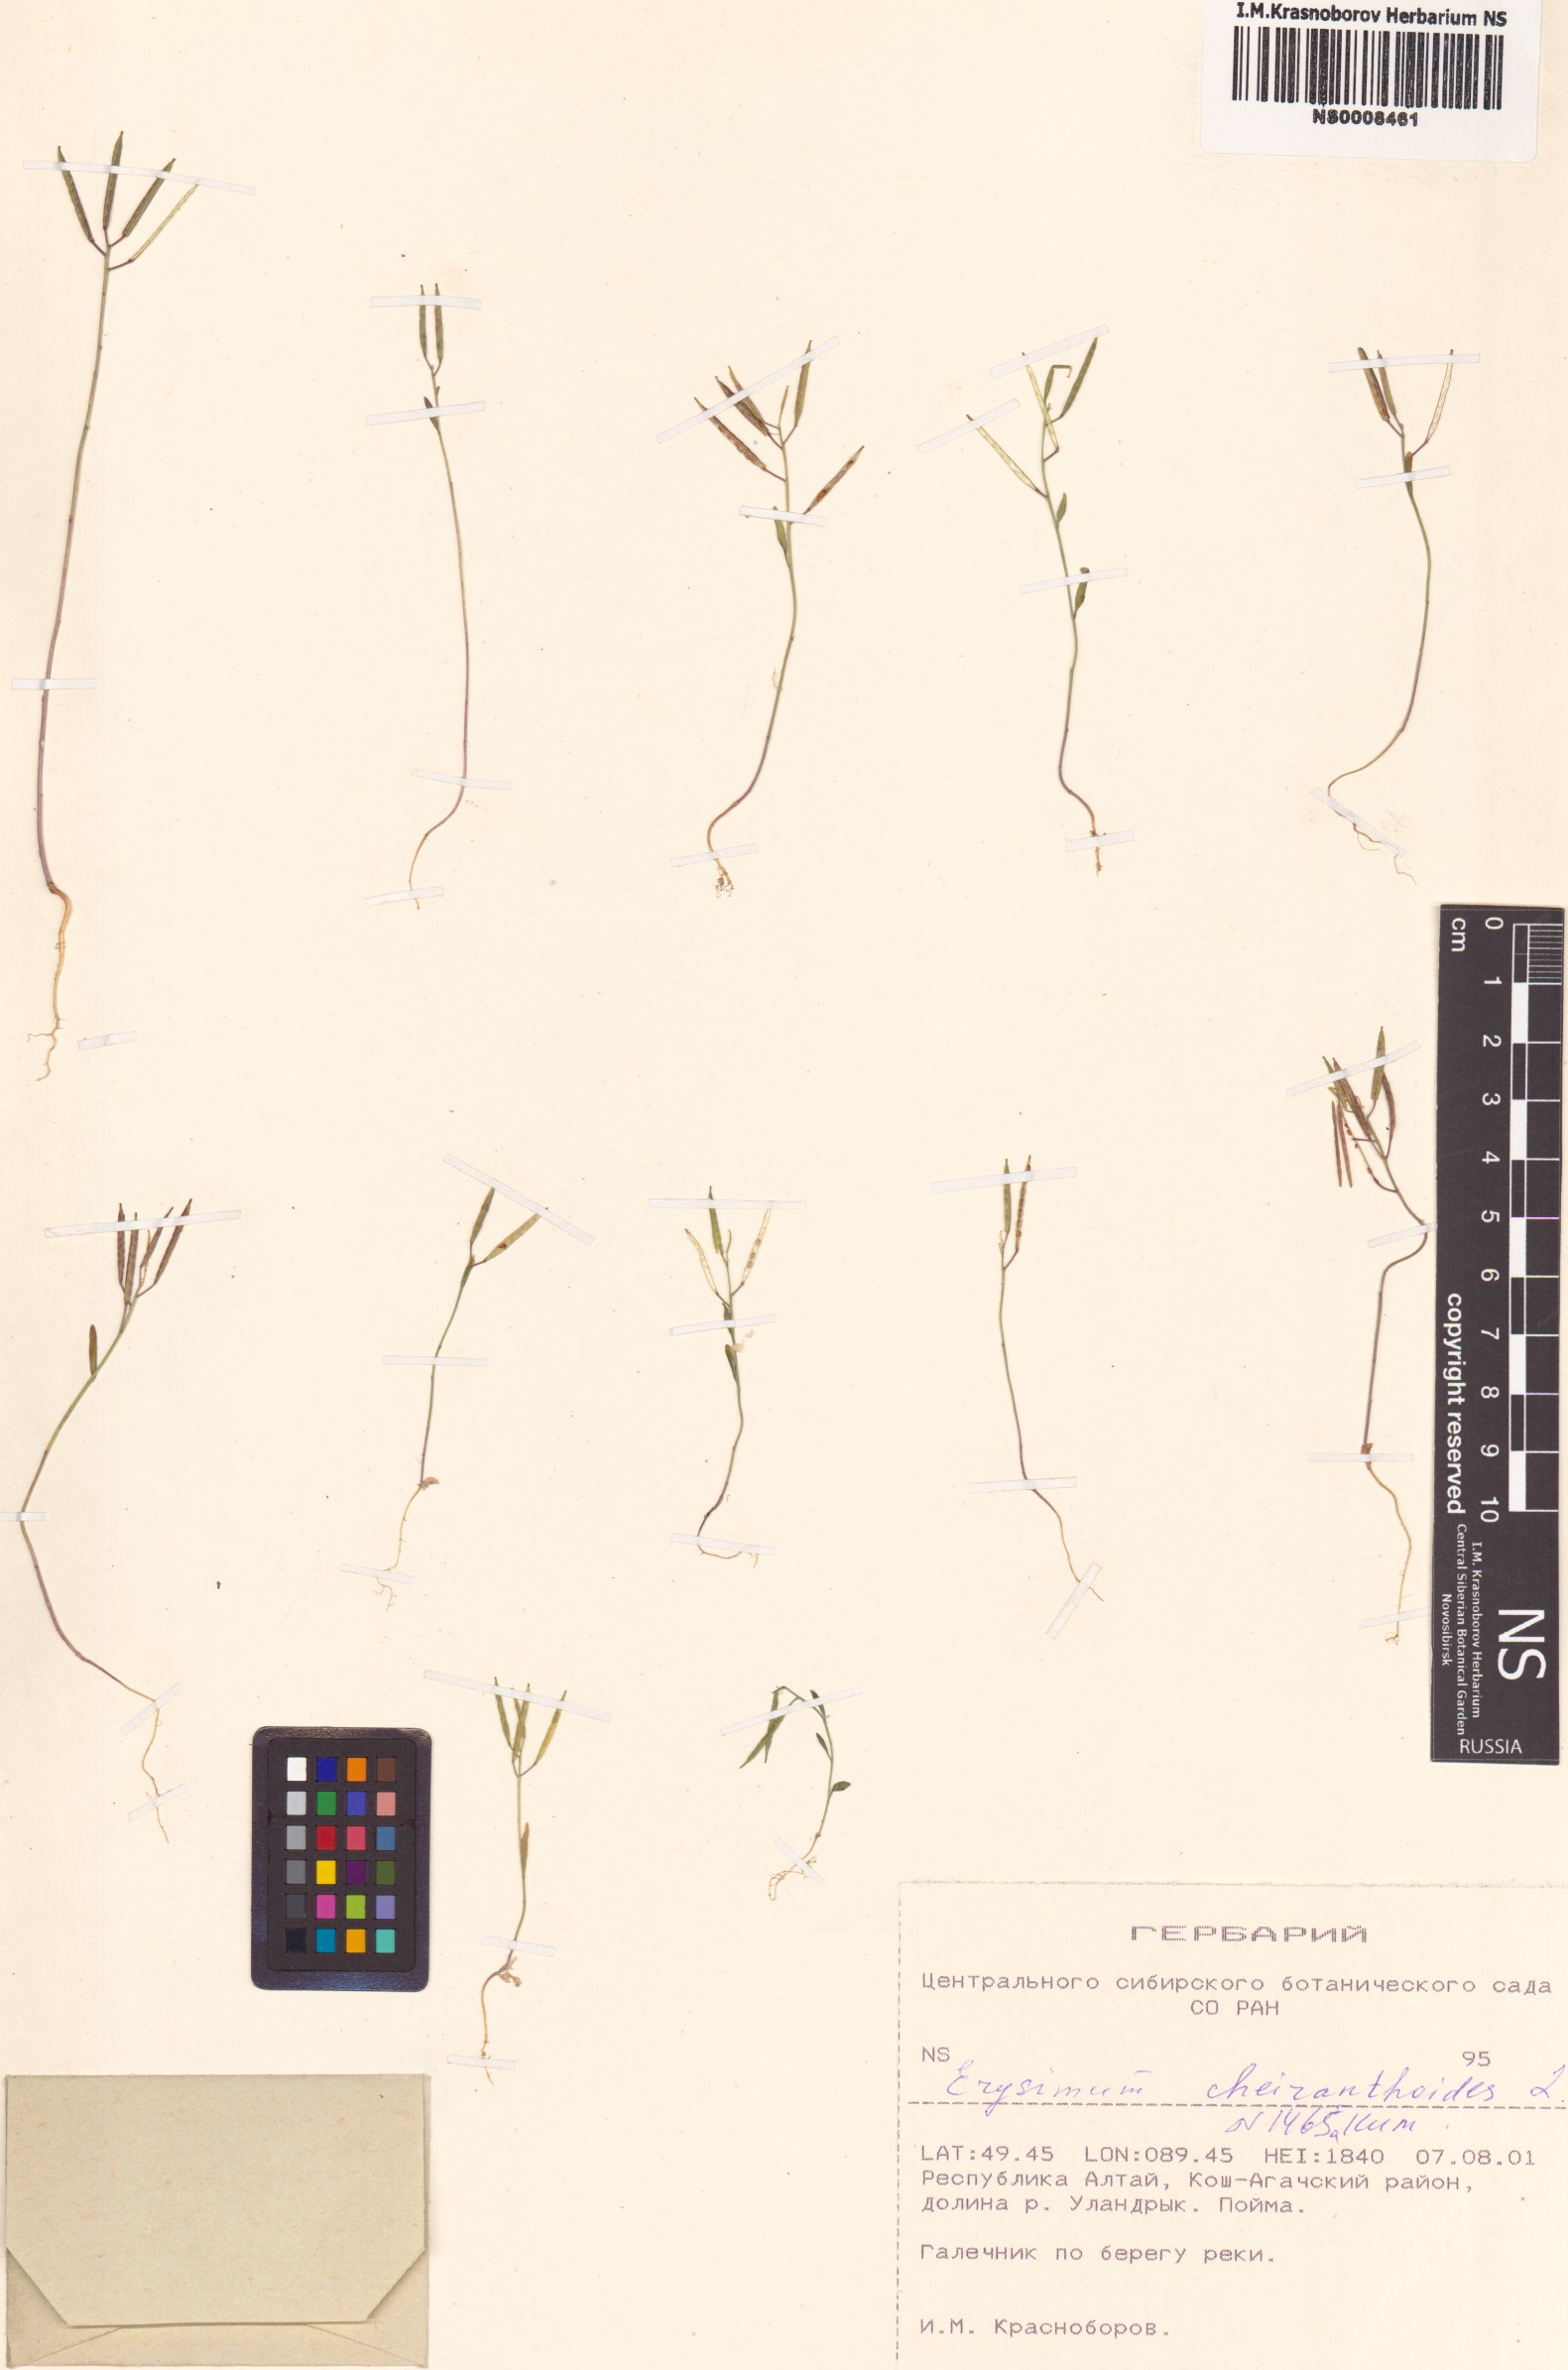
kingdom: Plantae
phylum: Tracheophyta
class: Magnoliopsida
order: Brassicales
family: Brassicaceae
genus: Erysimum
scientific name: Erysimum cheiranthoides
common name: Treacle mustard
